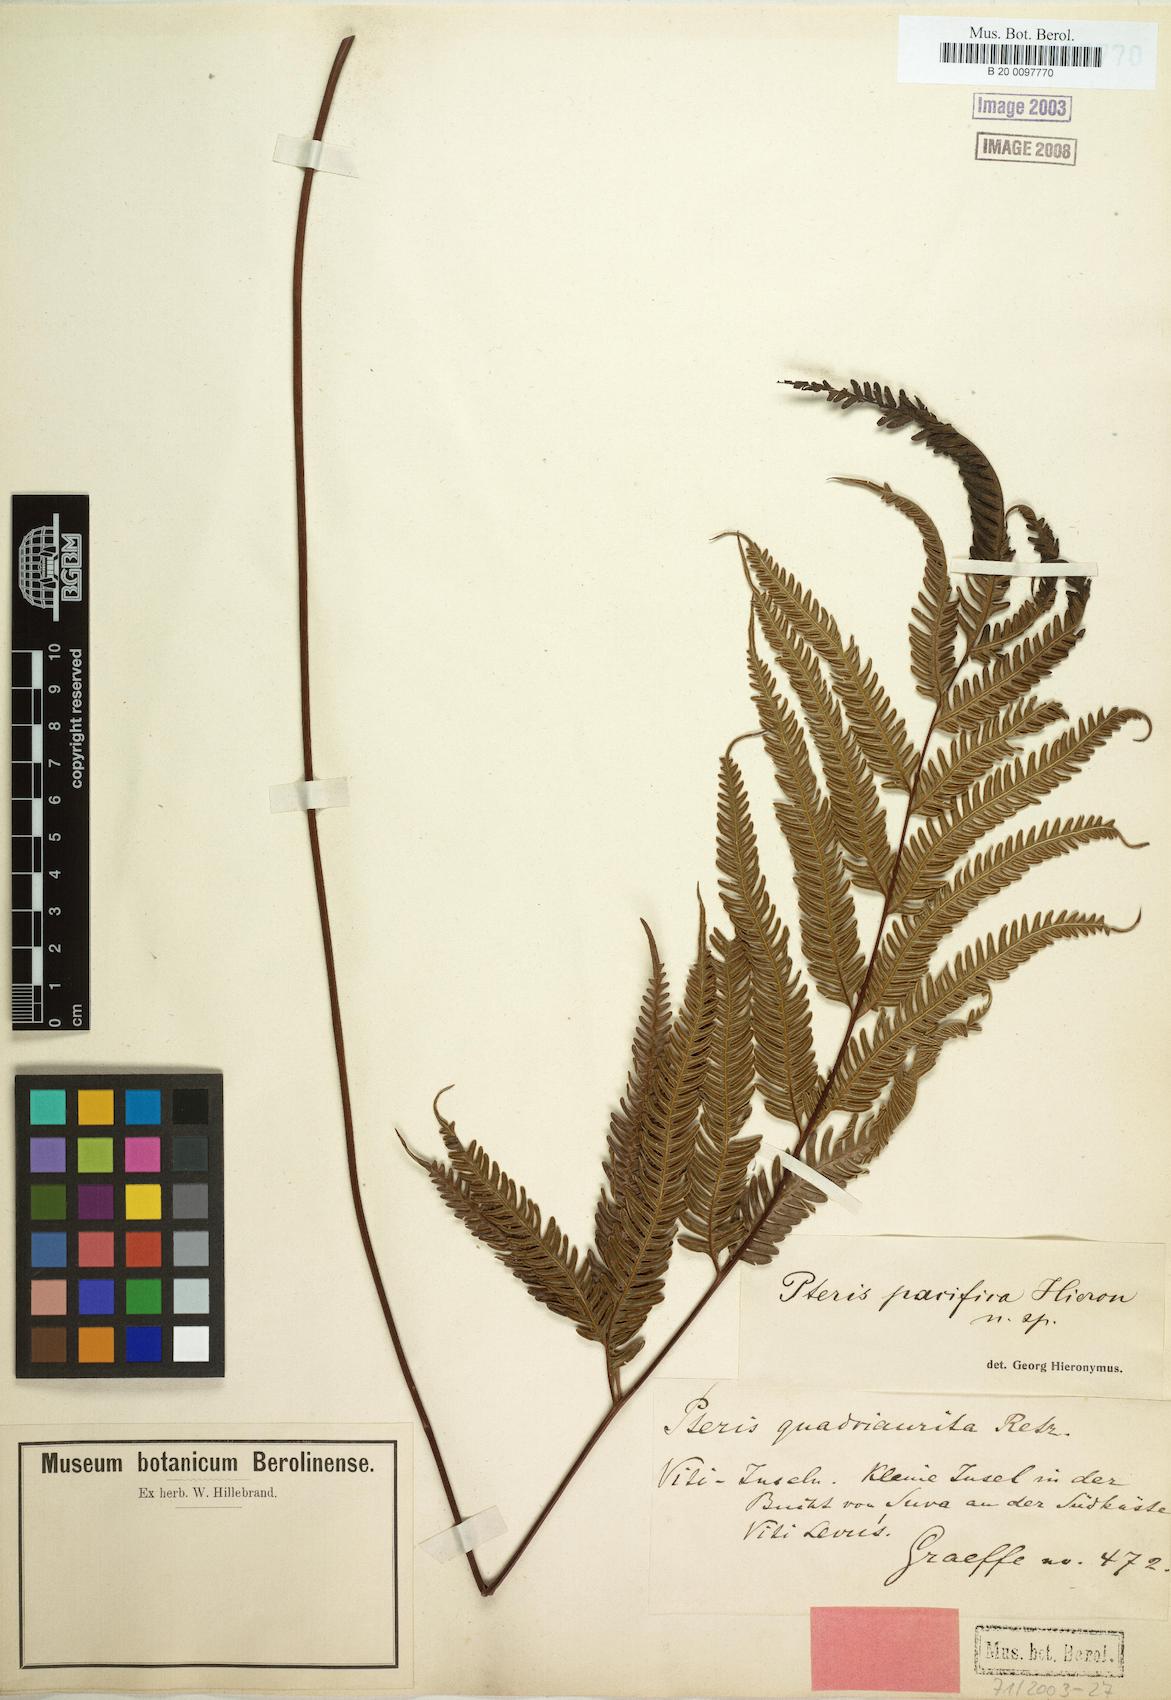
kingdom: Plantae
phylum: Tracheophyta
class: Polypodiopsida
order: Polypodiales
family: Pteridaceae
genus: Pteris
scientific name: Pteris biaurita
